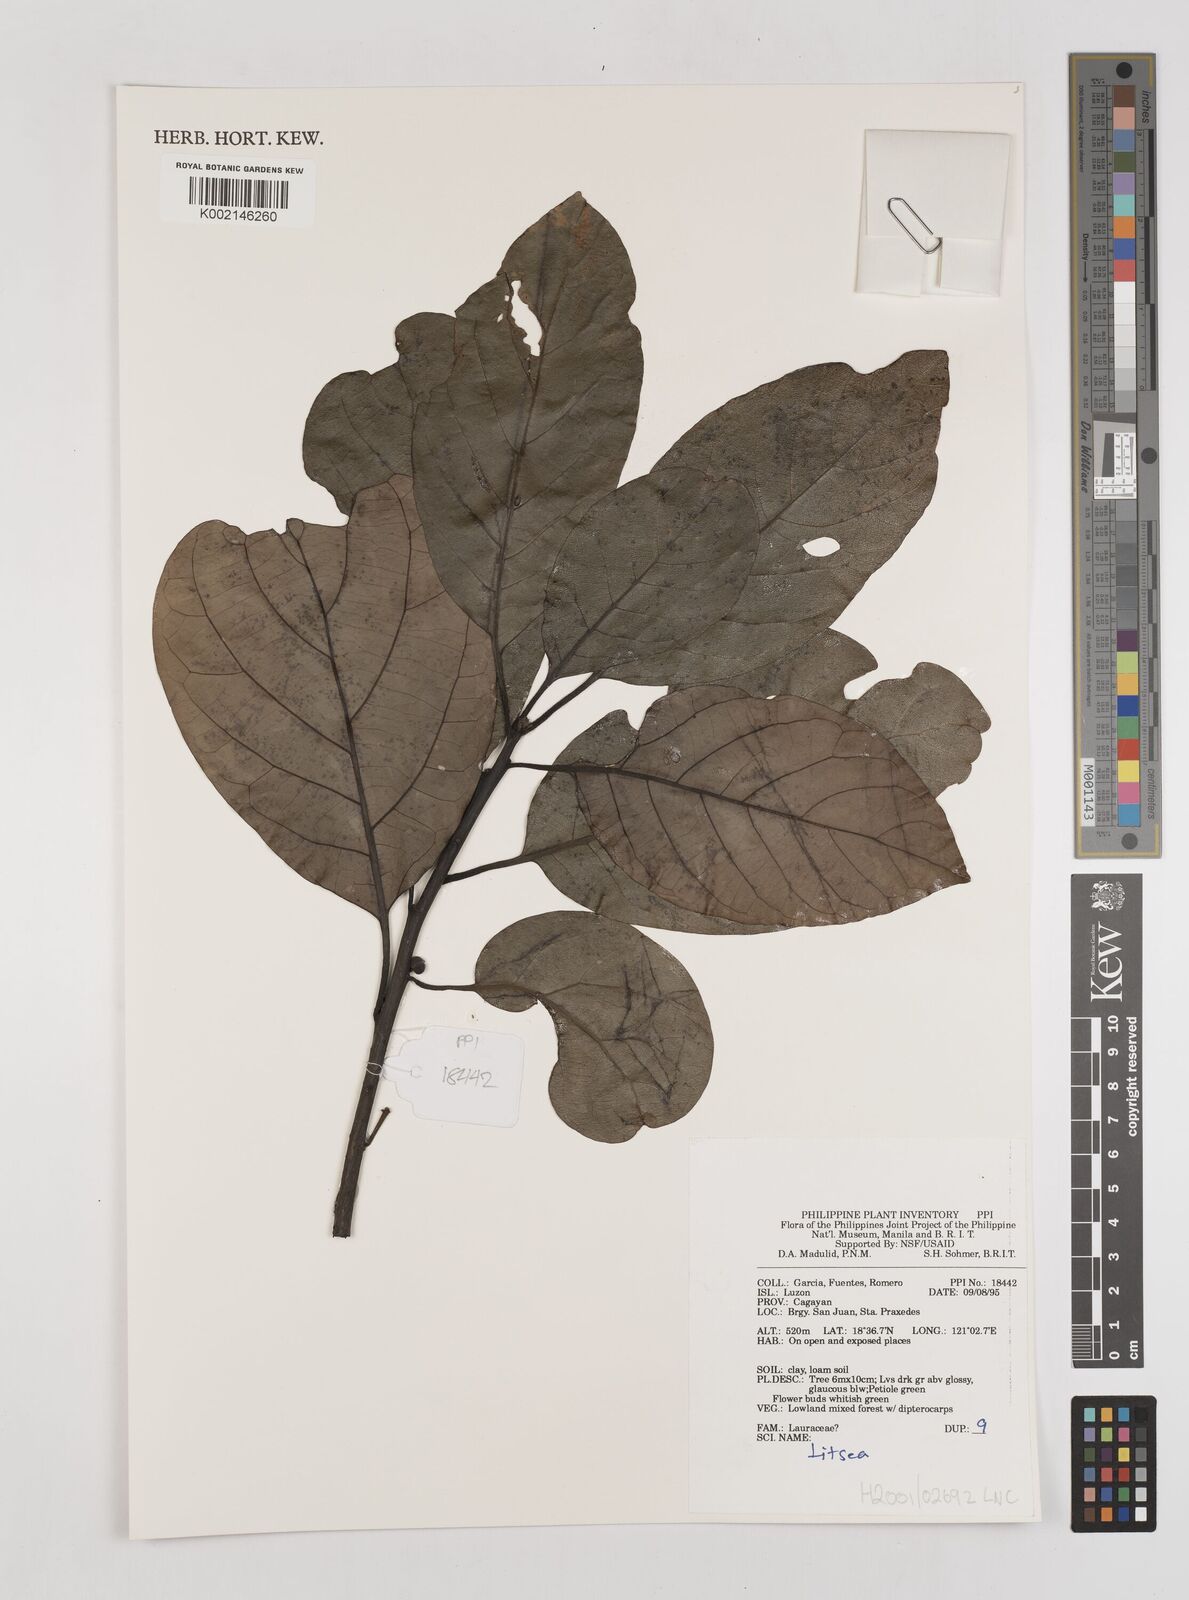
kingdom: Plantae
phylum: Tracheophyta
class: Magnoliopsida
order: Laurales
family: Lauraceae
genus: Litsea
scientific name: Litsea
